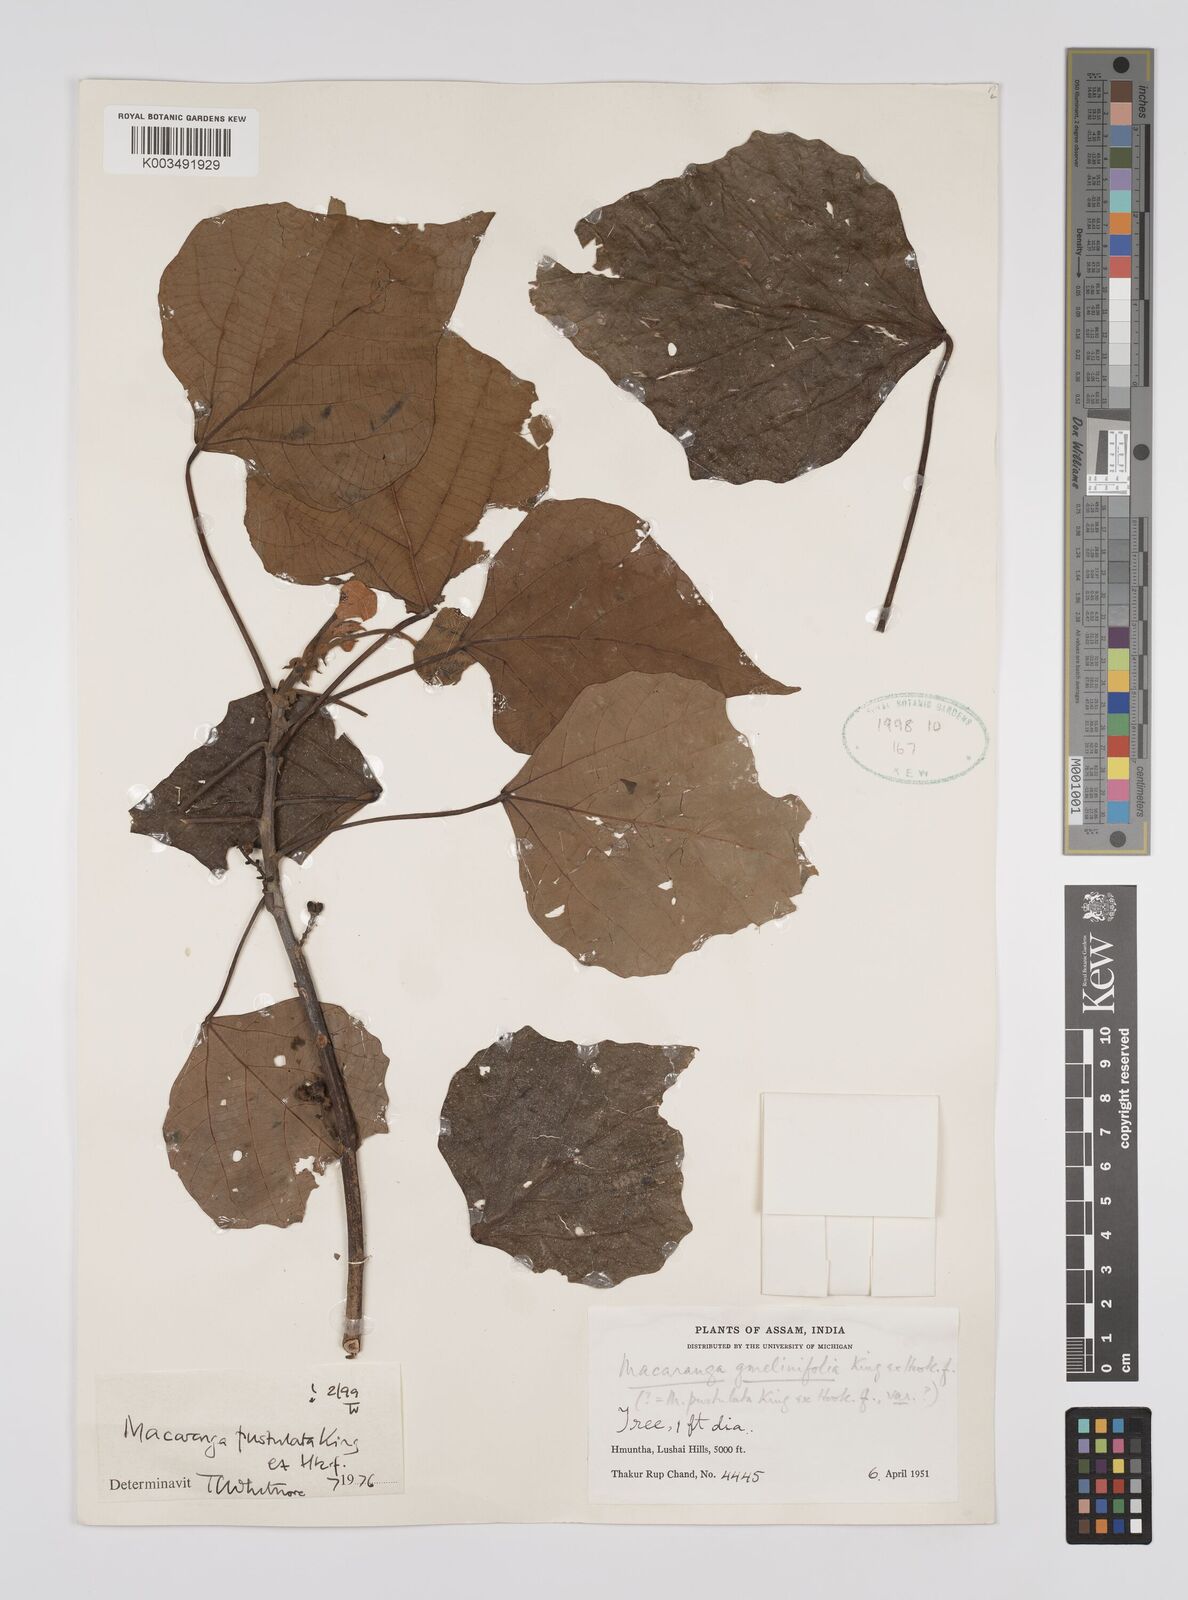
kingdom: Plantae
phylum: Tracheophyta
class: Magnoliopsida
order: Malpighiales
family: Euphorbiaceae
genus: Macaranga
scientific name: Macaranga denticulata
